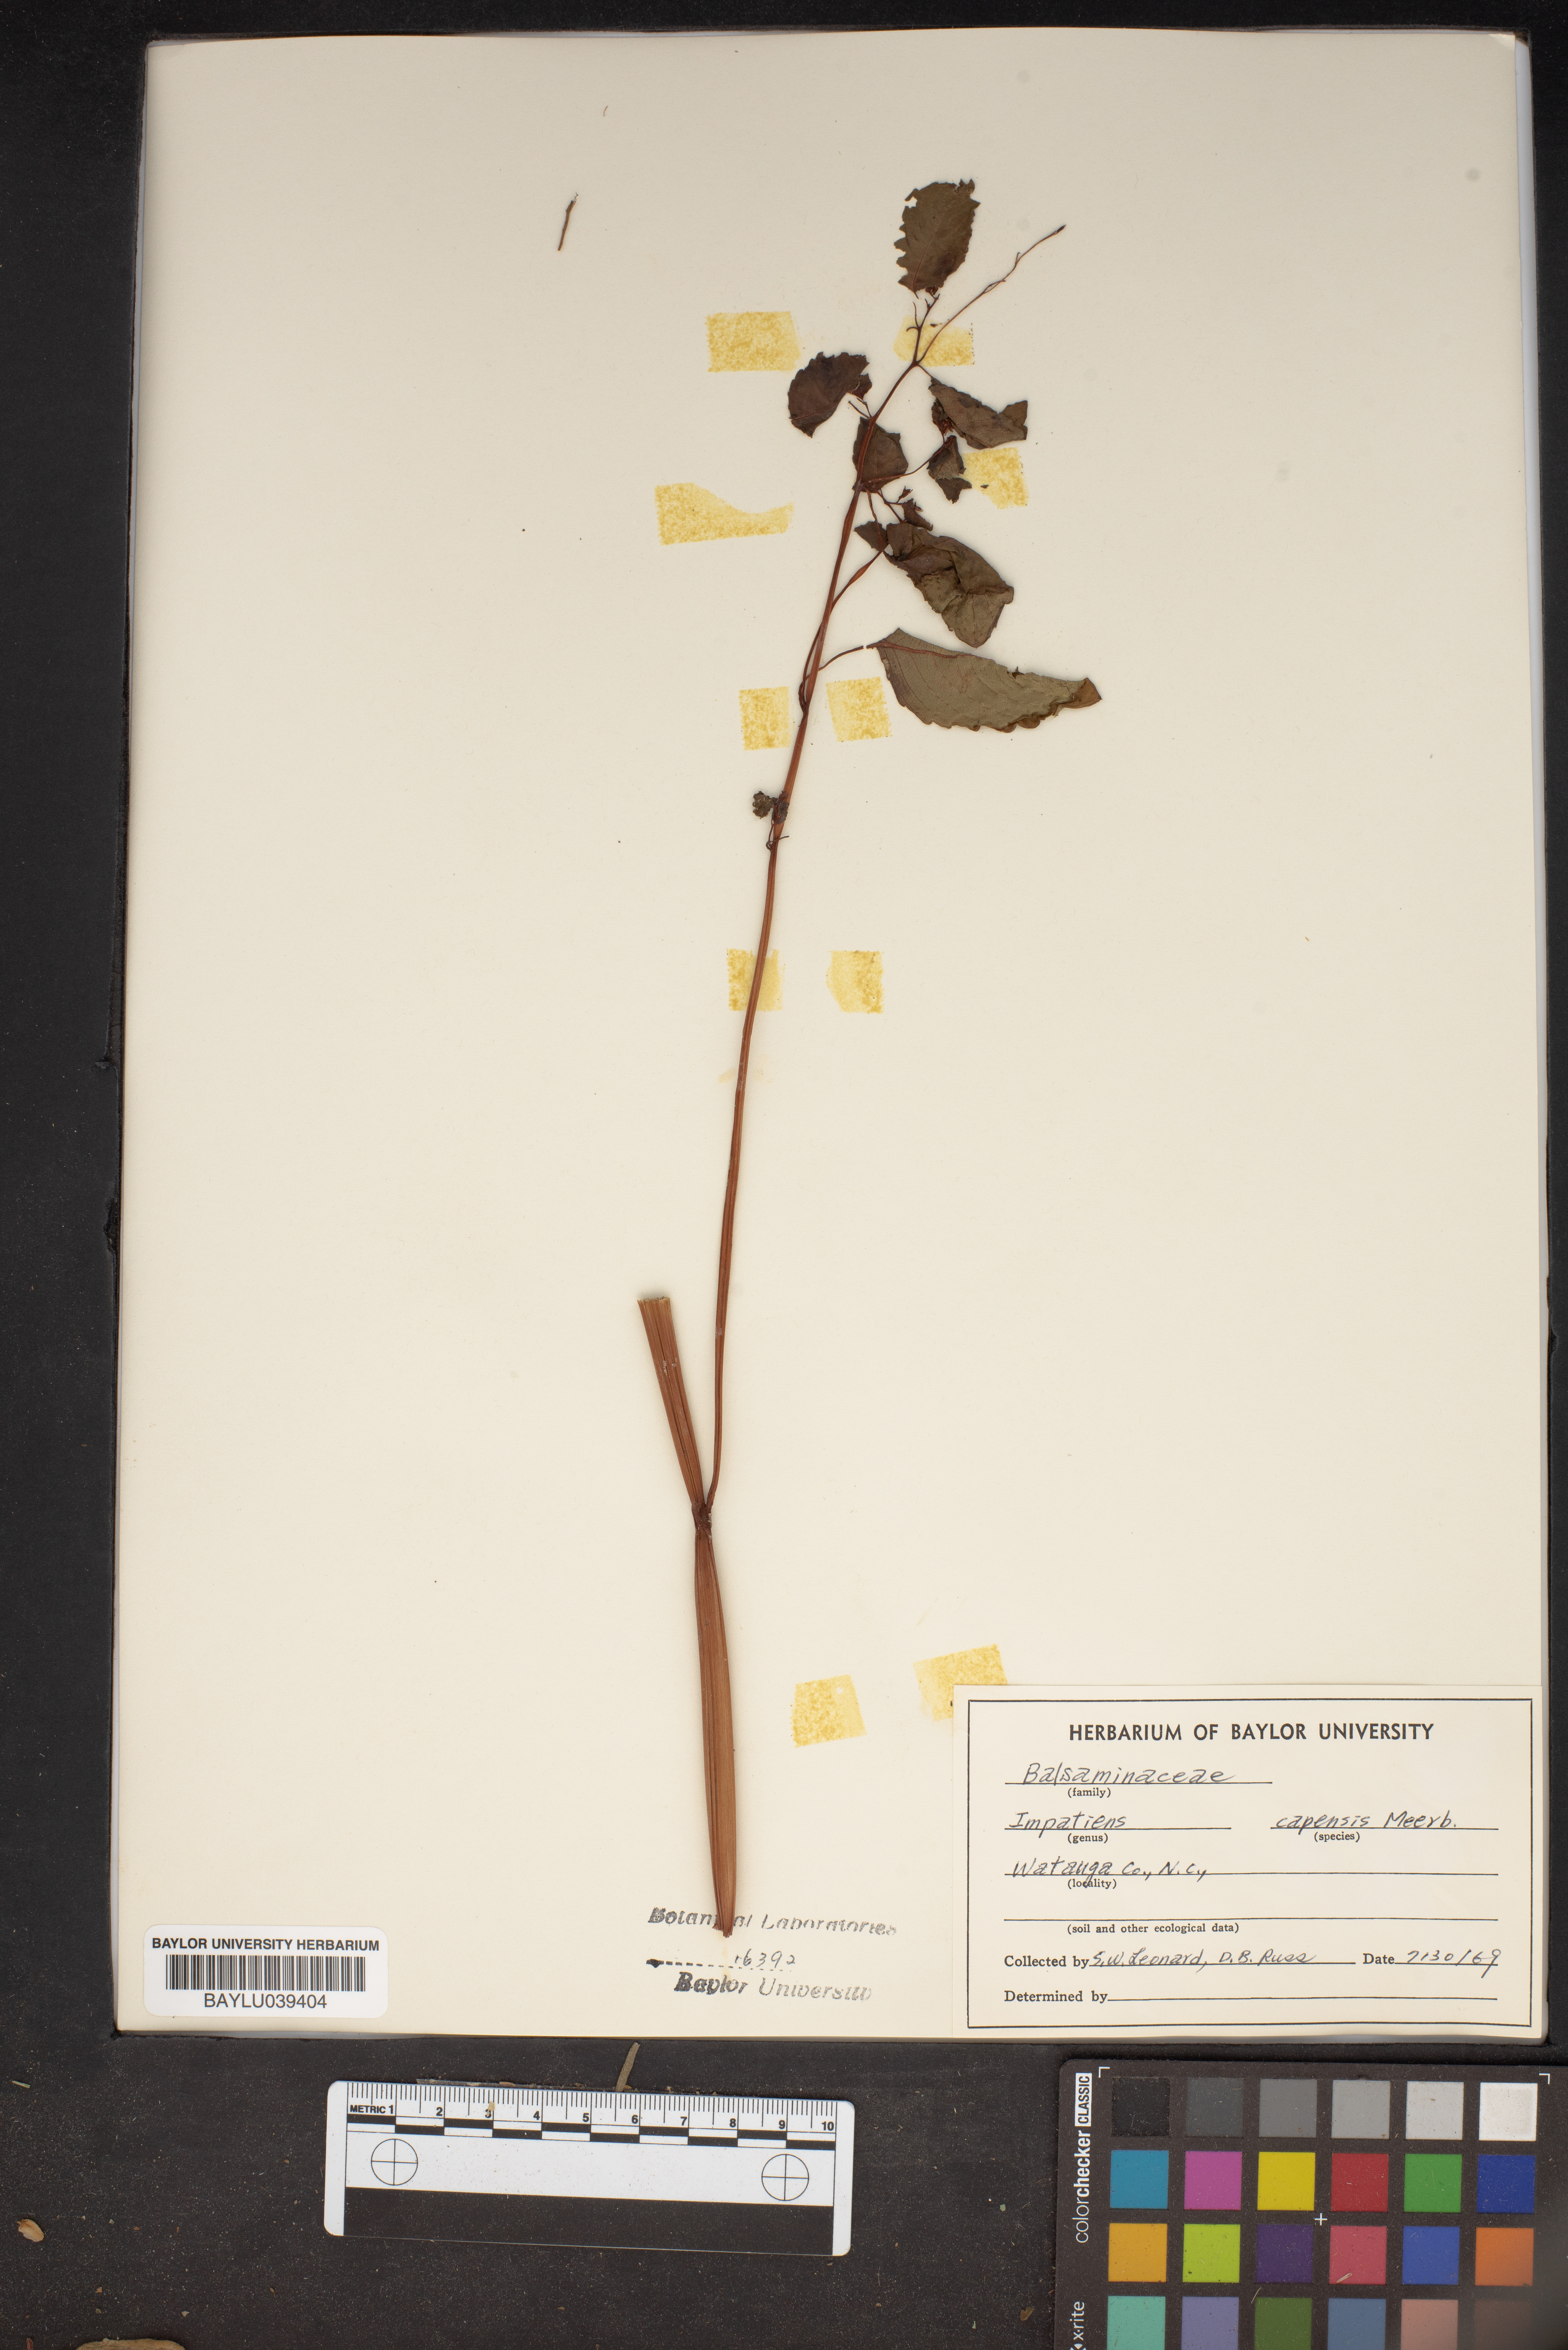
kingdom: Plantae
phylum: Tracheophyta
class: Magnoliopsida
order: Ericales
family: Balsaminaceae
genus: Impatiens
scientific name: Impatiens capensis
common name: Orange balsam
